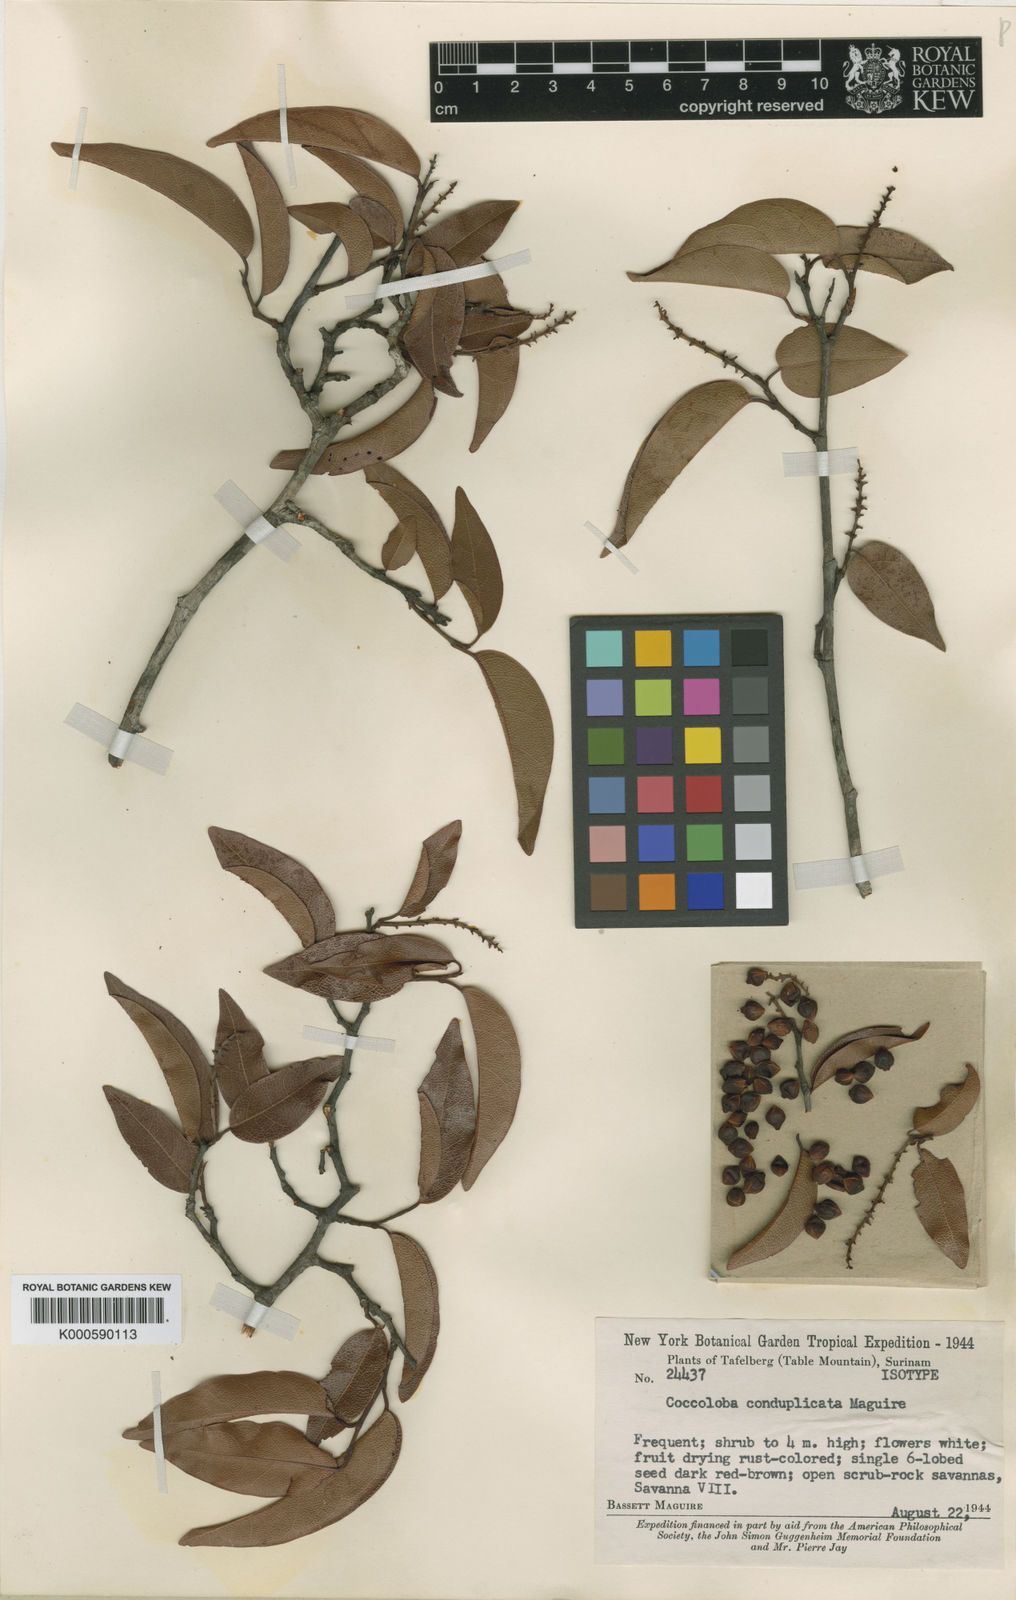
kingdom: Plantae
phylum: Tracheophyta
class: Magnoliopsida
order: Caryophyllales
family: Polygonaceae
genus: Coccoloba
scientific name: Coccoloba conduplicata
